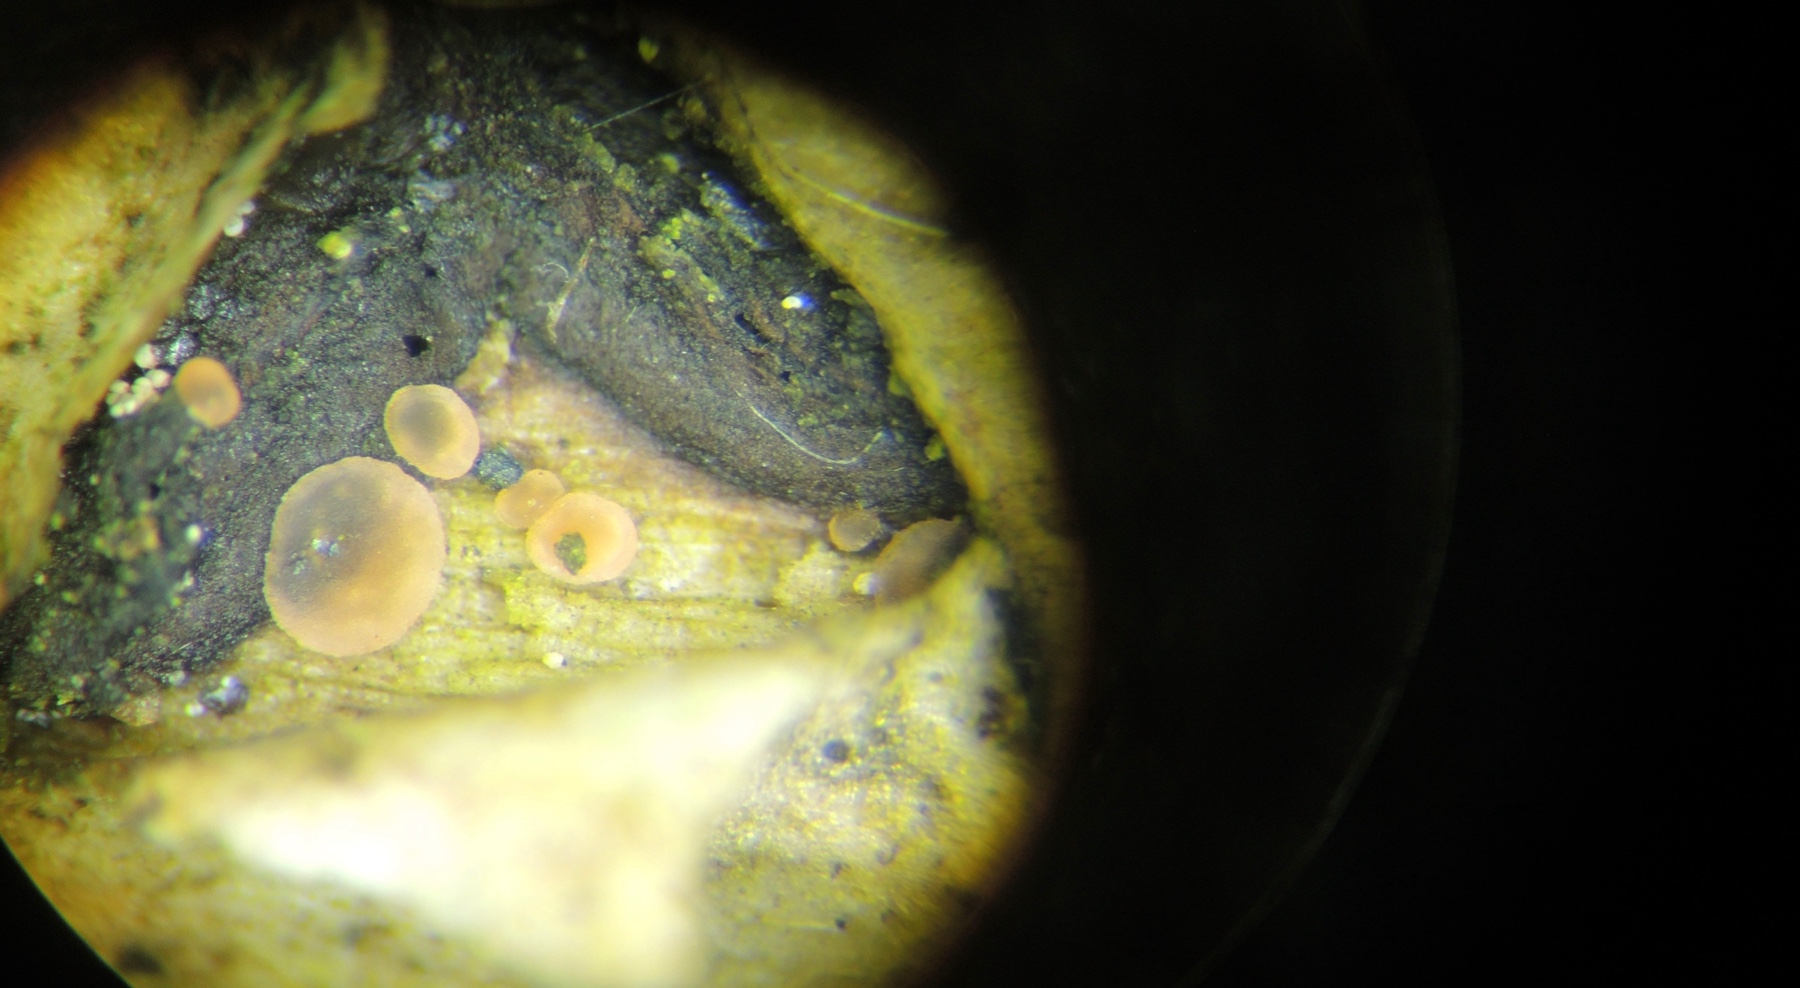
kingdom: Fungi
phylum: Ascomycota
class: Orbiliomycetes
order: Orbiliales
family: Orbiliaceae
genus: Orbilia
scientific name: Orbilia eucalypti
